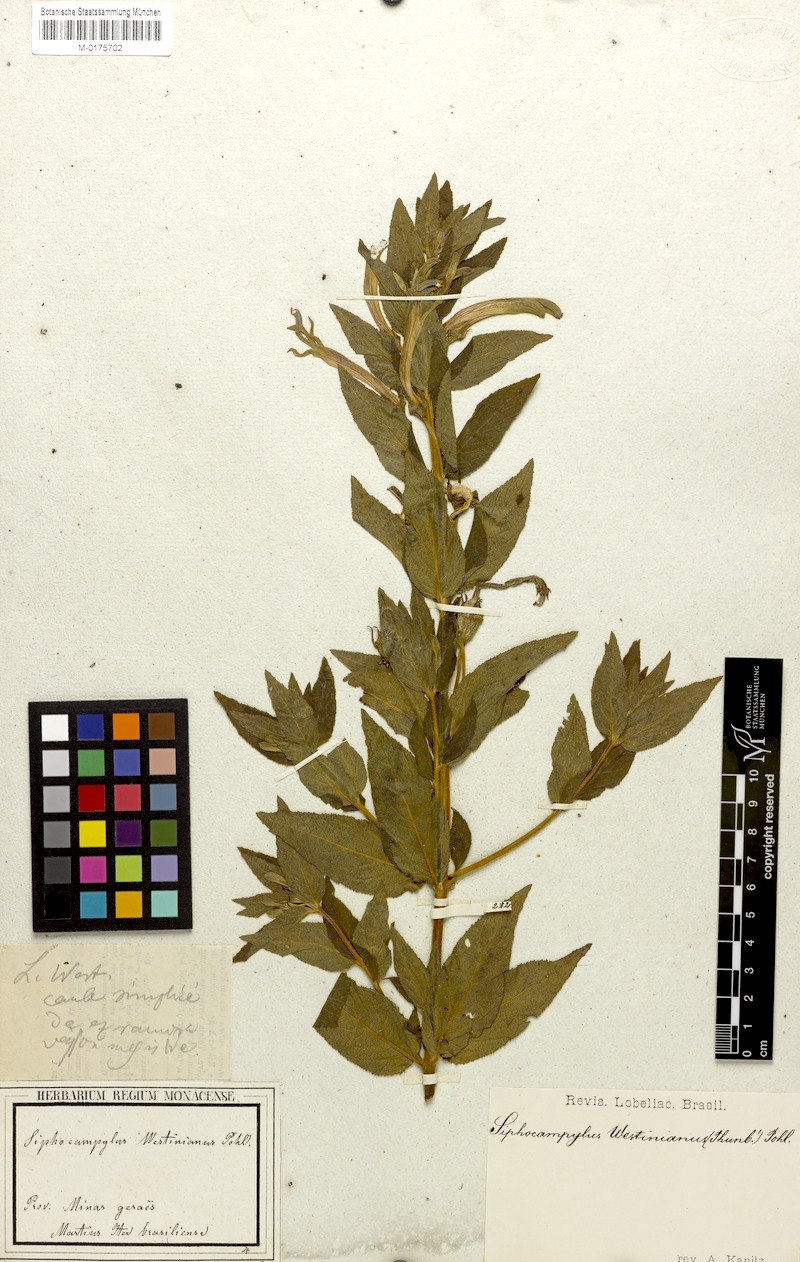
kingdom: Plantae
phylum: Tracheophyta
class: Magnoliopsida
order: Asterales
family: Campanulaceae
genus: Siphocampylus
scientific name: Siphocampylus westinianus
